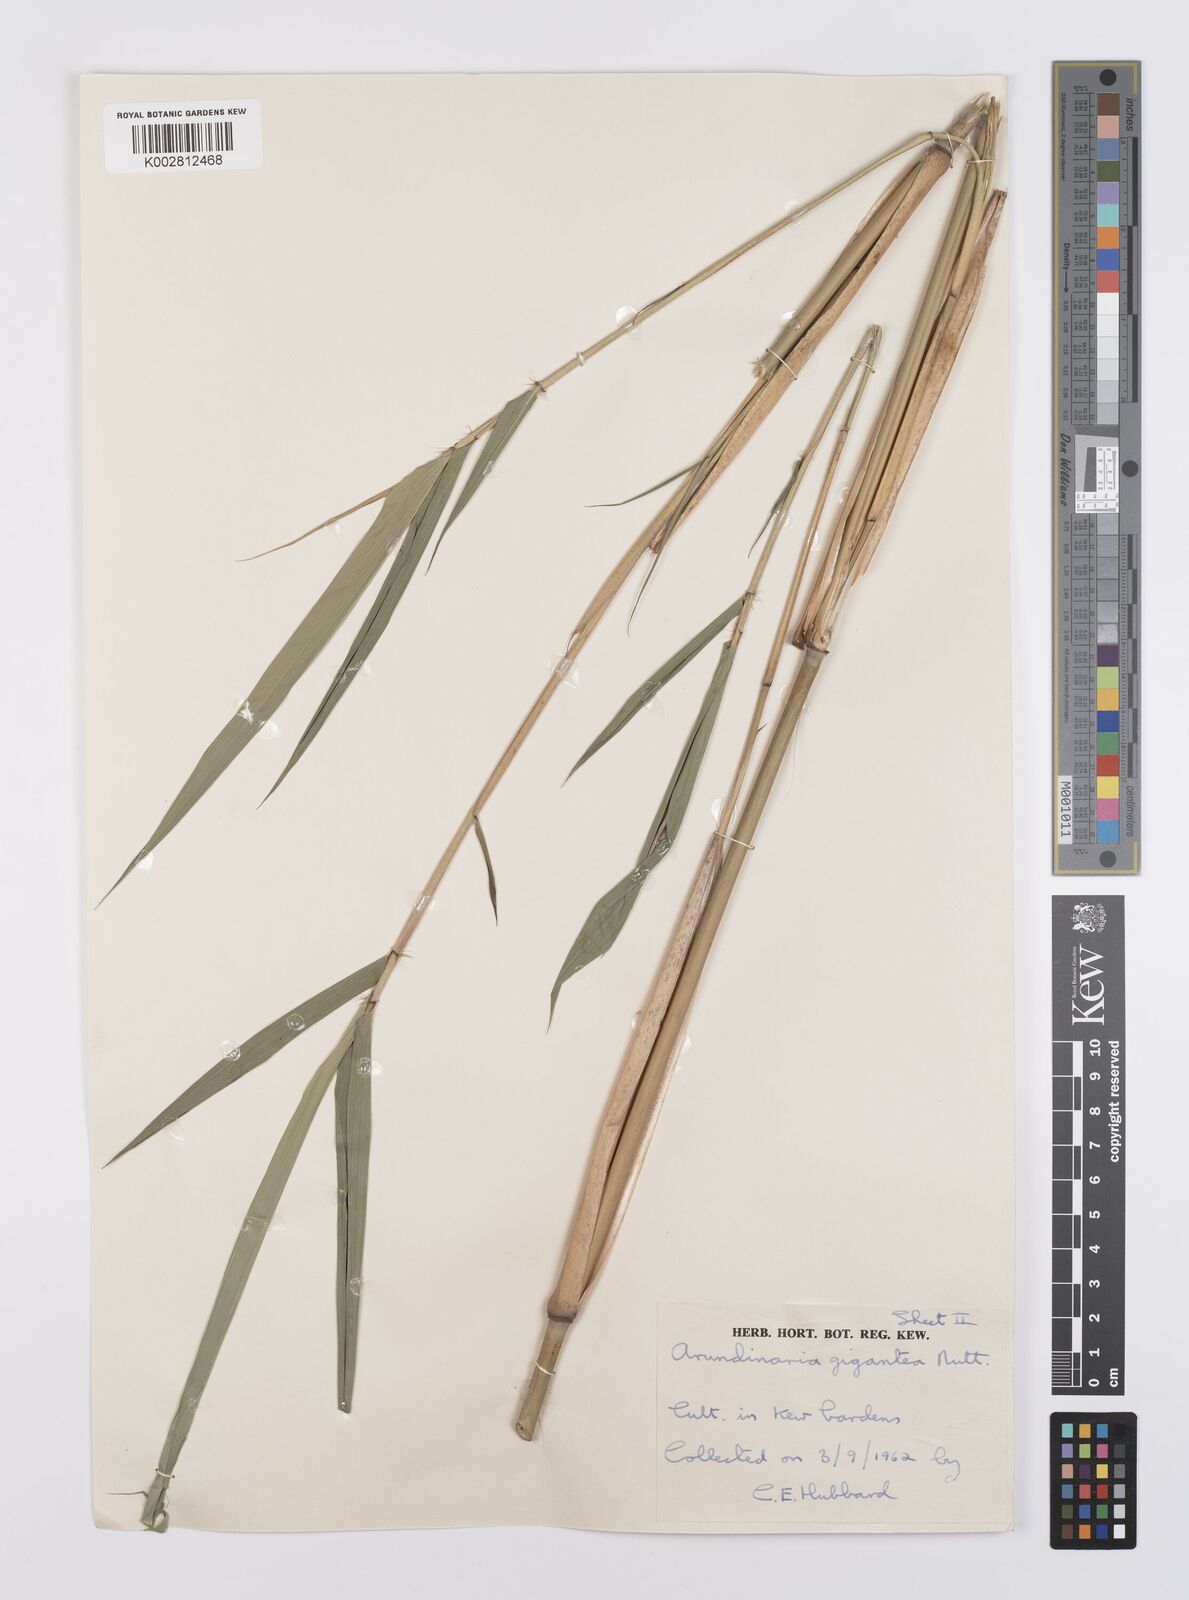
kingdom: Plantae
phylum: Tracheophyta
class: Liliopsida
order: Poales
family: Poaceae
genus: Arundinaria
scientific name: Arundinaria tecta
